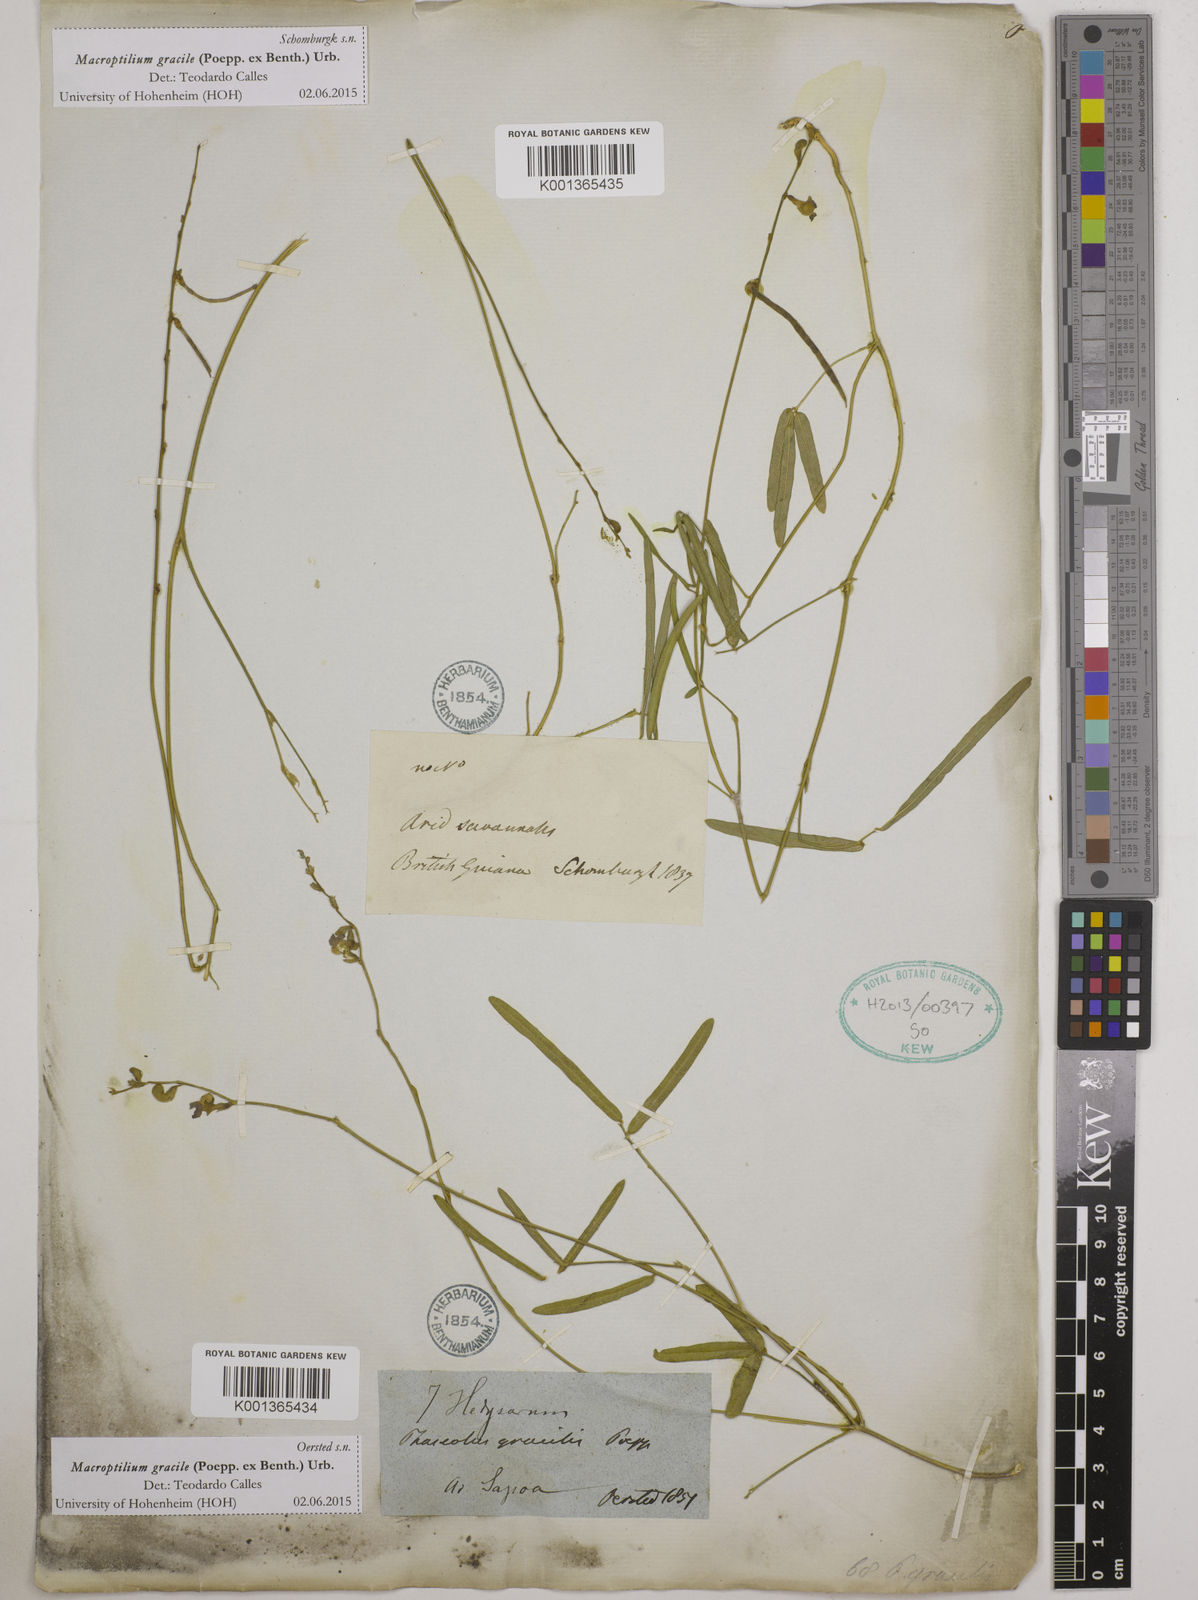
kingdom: Plantae
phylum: Tracheophyta
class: Magnoliopsida
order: Fabales
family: Fabaceae
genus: Macroptilium
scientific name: Macroptilium gracile
